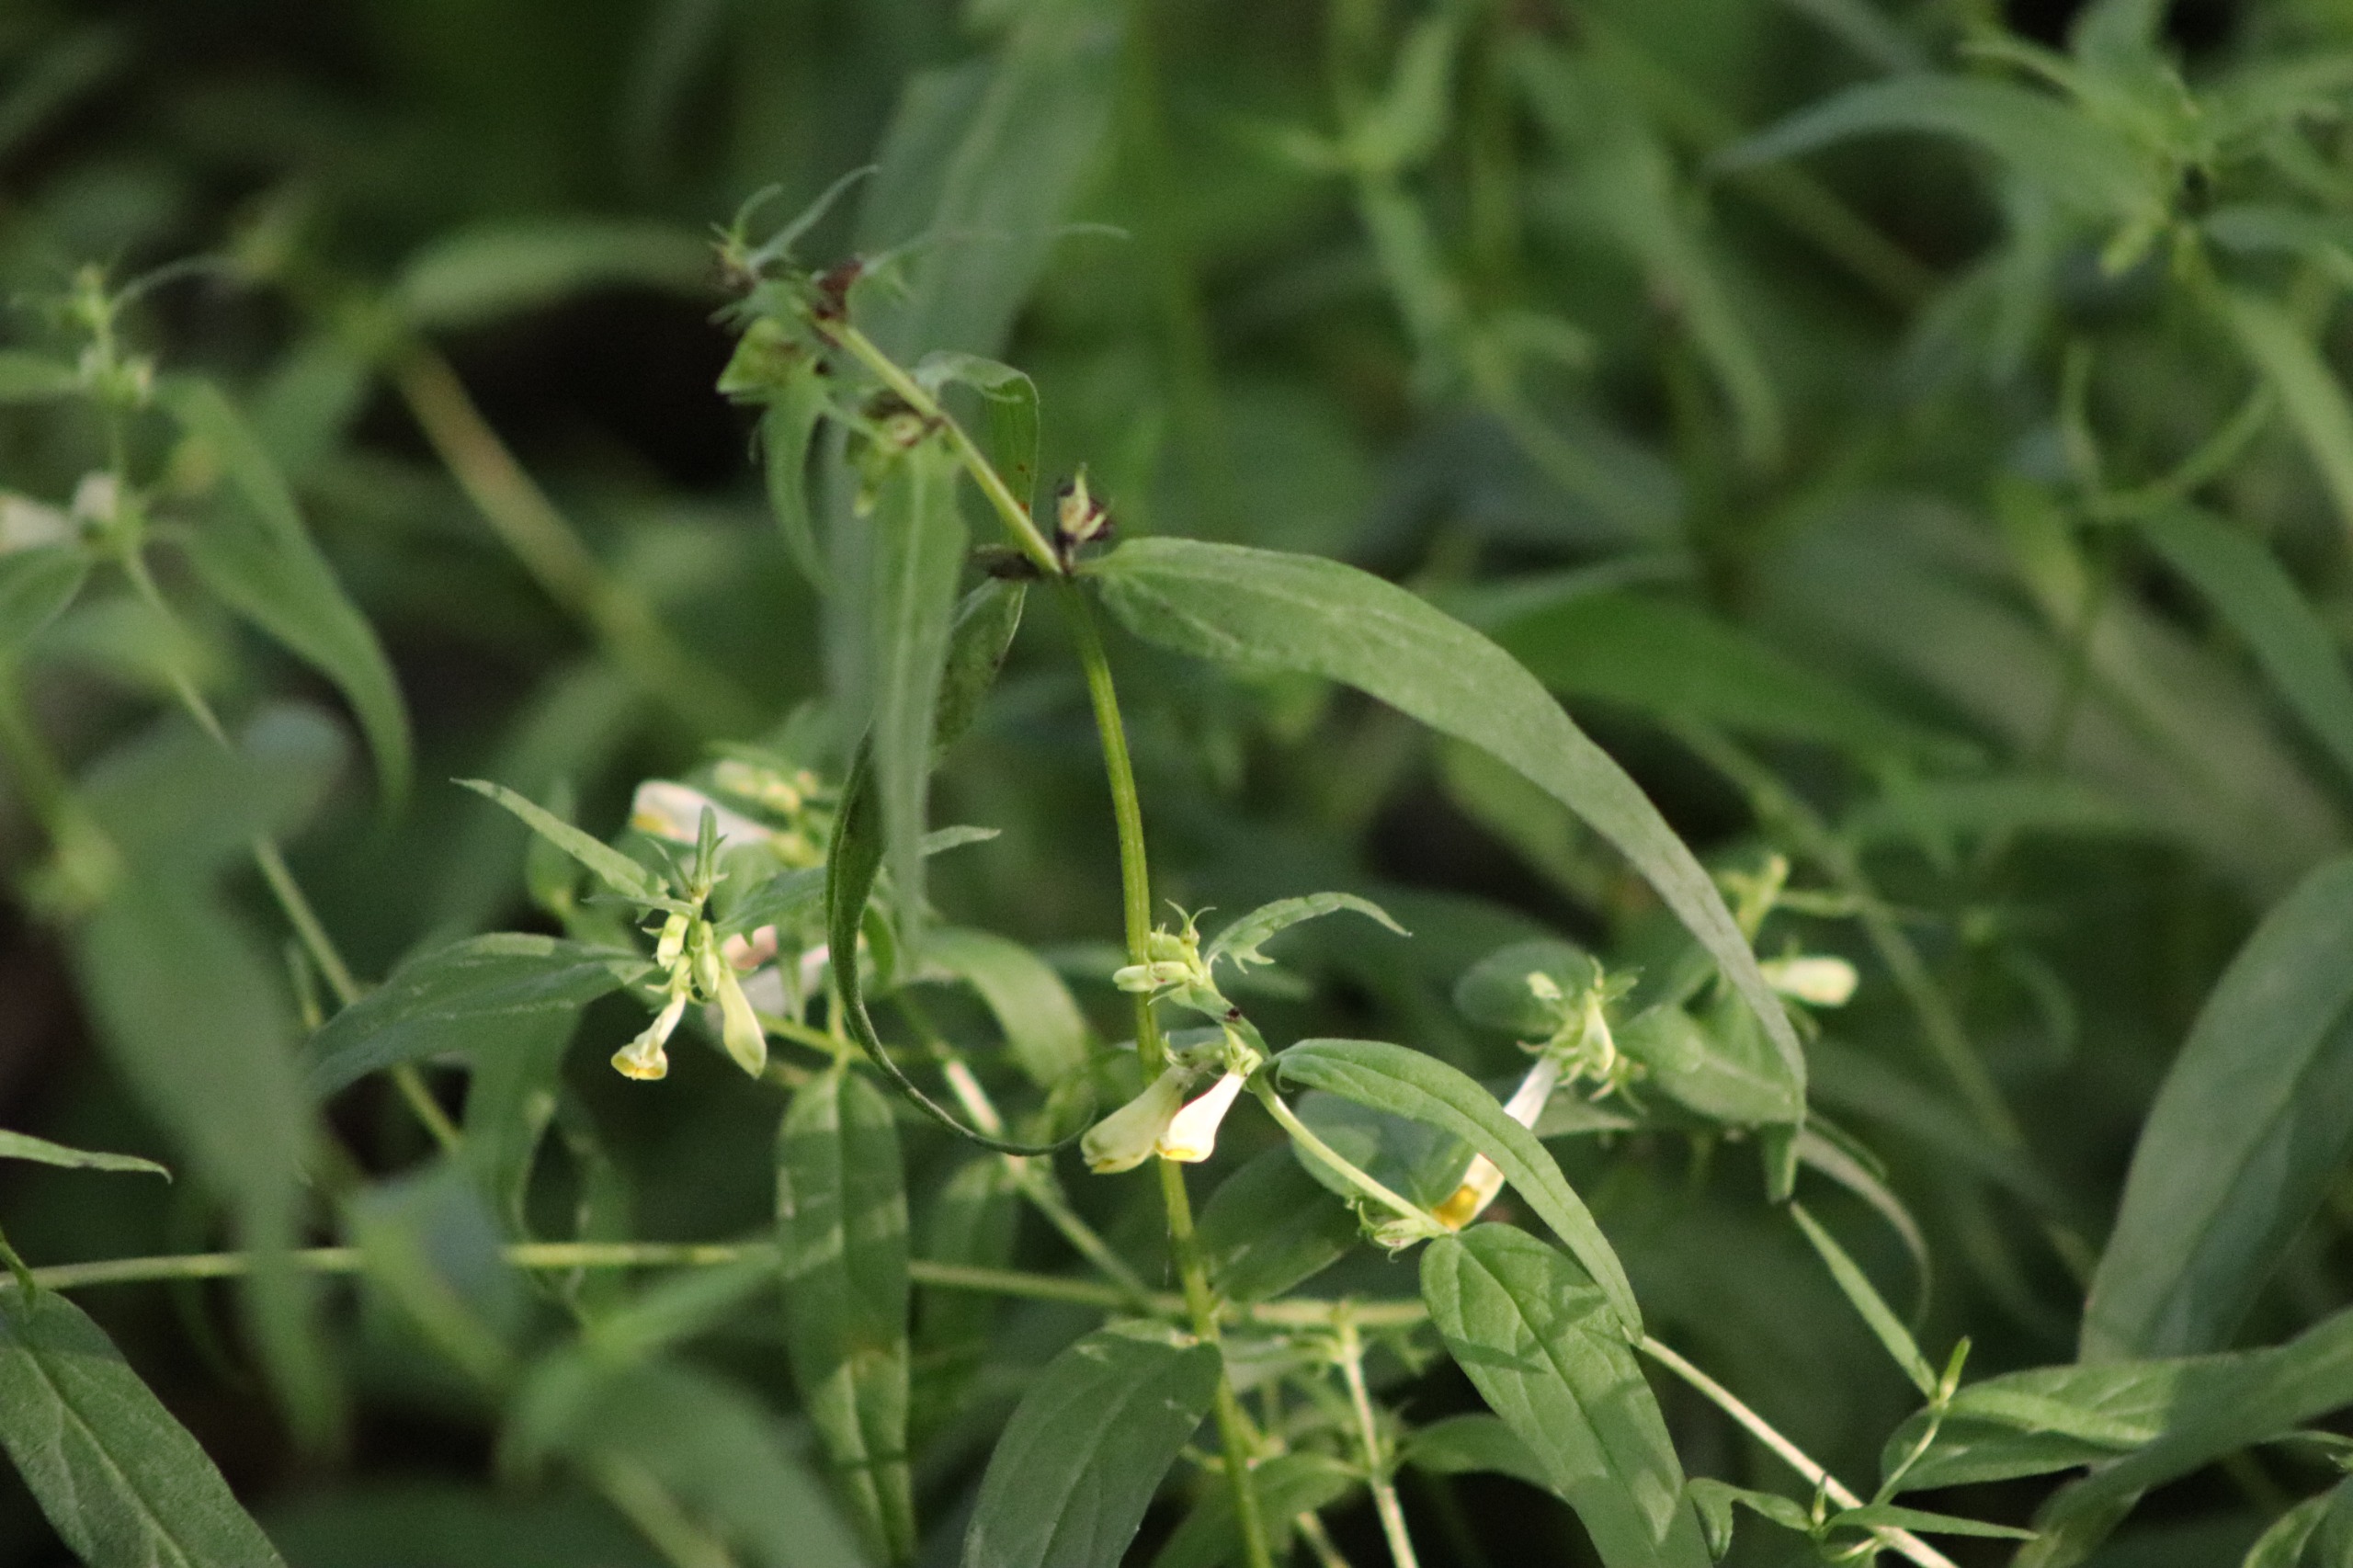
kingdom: Plantae
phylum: Tracheophyta
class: Magnoliopsida
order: Lamiales
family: Orobanchaceae
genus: Melampyrum
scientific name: Melampyrum pratense
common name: Almindelig kohvede
